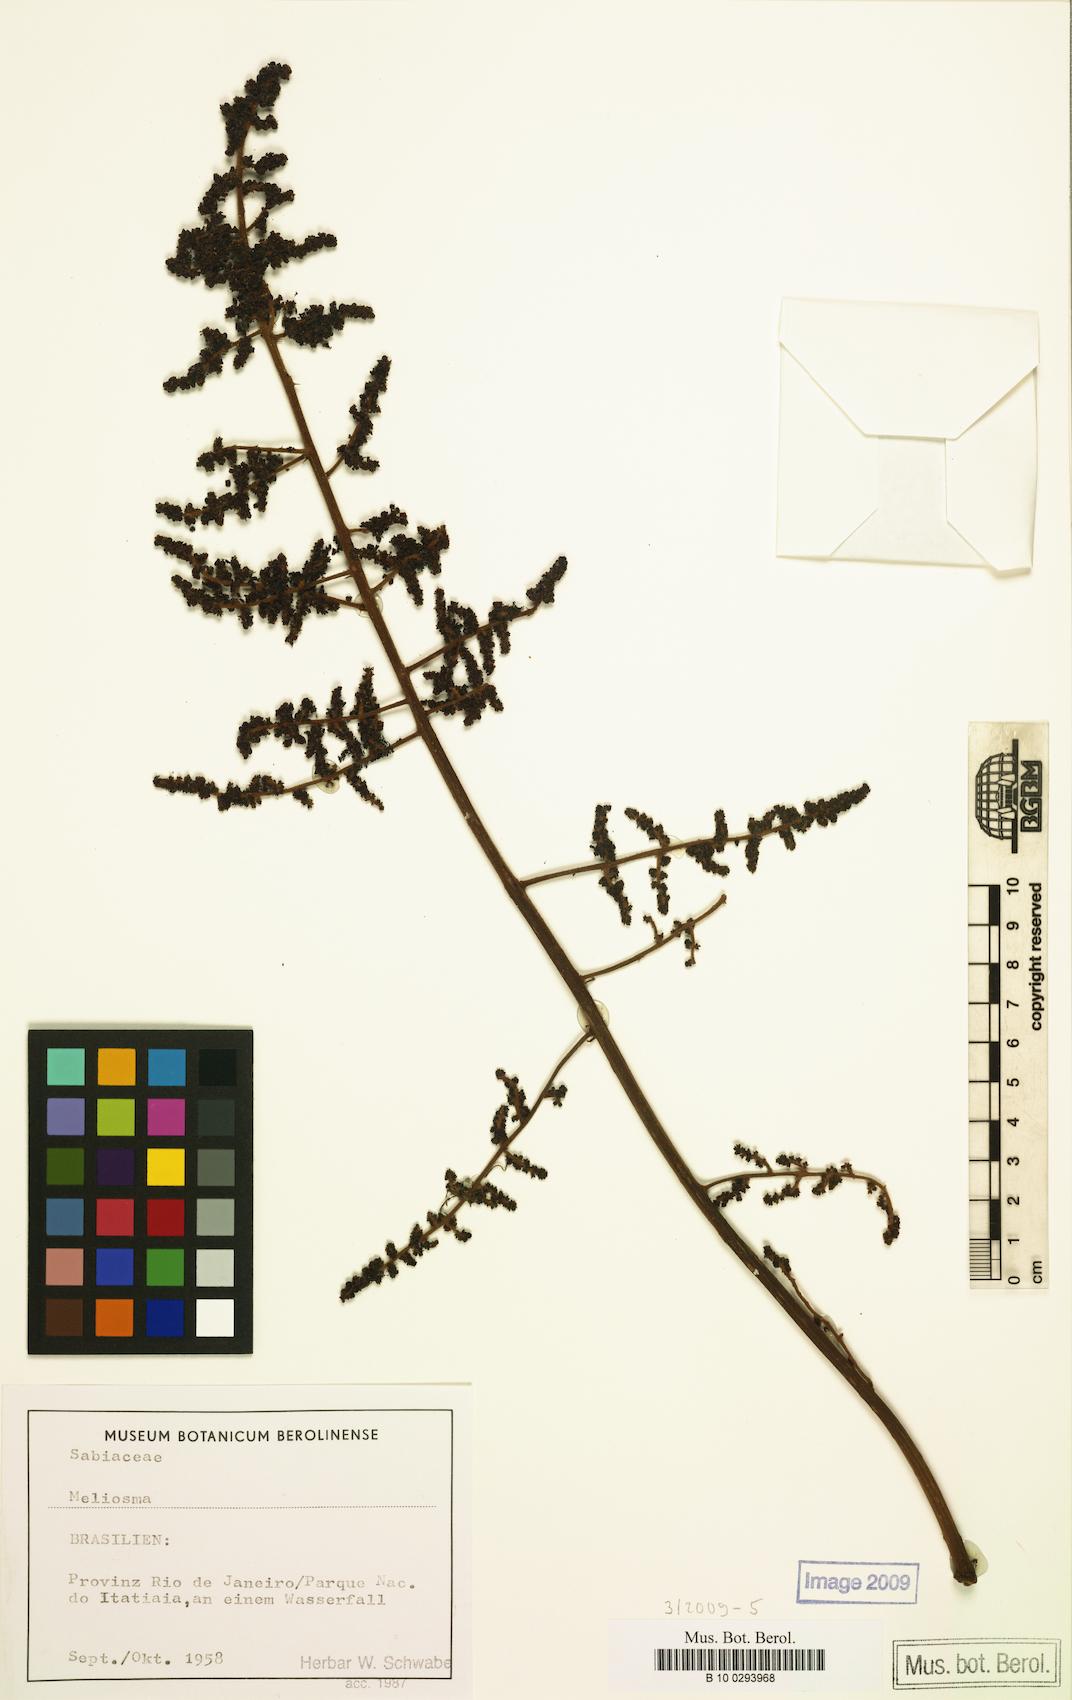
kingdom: Plantae
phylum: Tracheophyta
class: Magnoliopsida
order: Proteales
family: Sabiaceae
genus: Meliosma
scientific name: Meliosma
